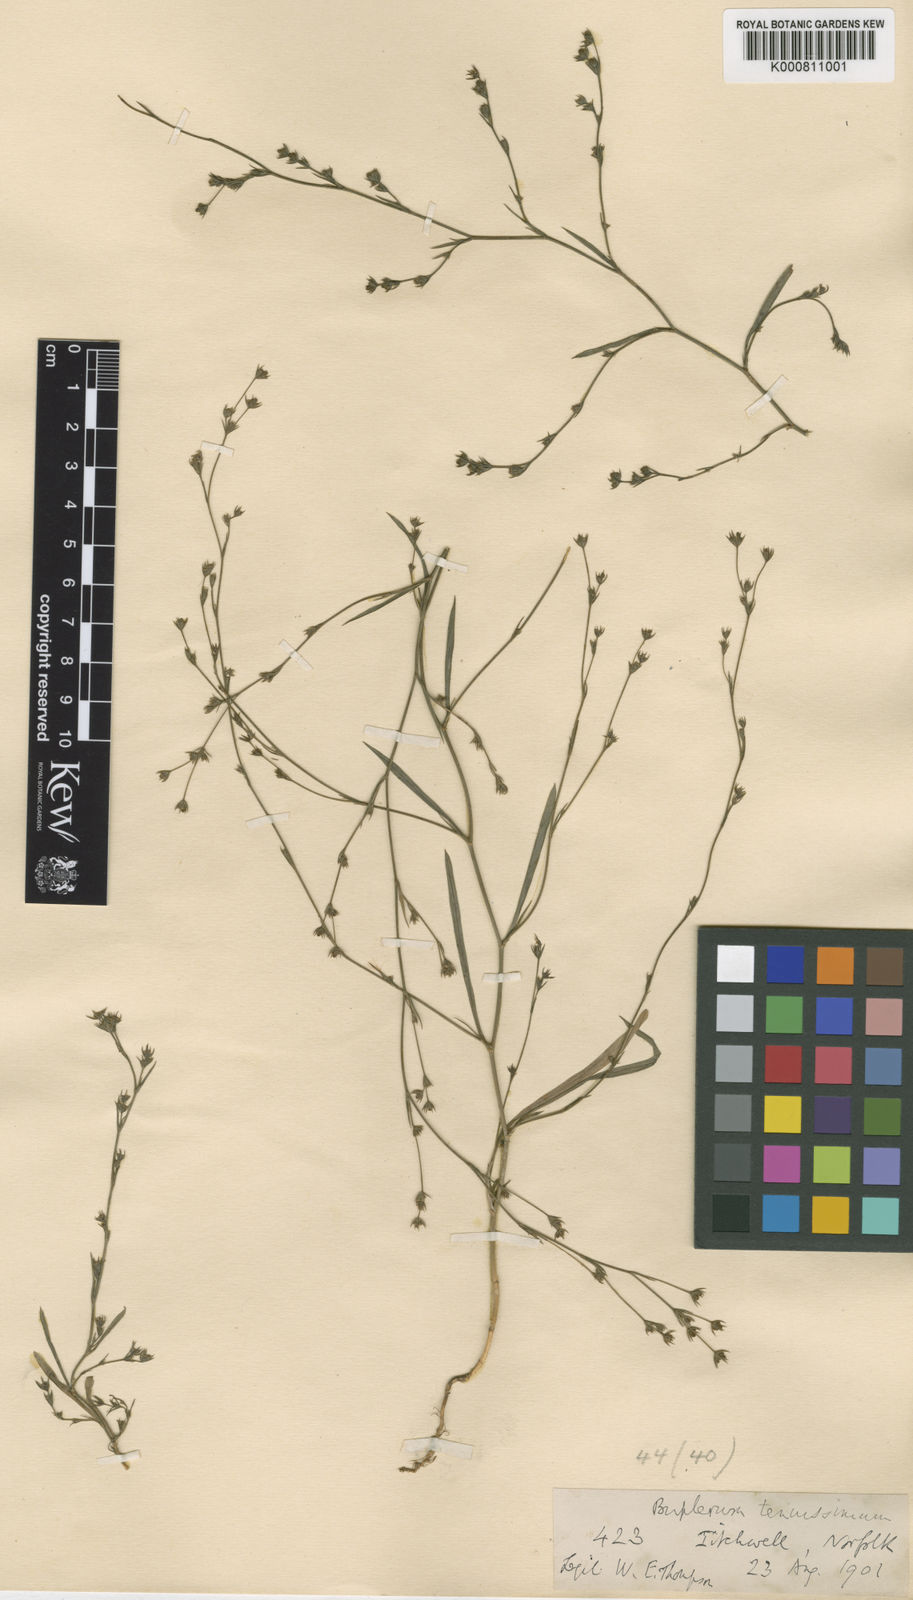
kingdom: Plantae
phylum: Tracheophyta
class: Magnoliopsida
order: Apiales
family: Apiaceae
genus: Bupleurum
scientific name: Bupleurum tenuissimum
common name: Slender hare's-ear
